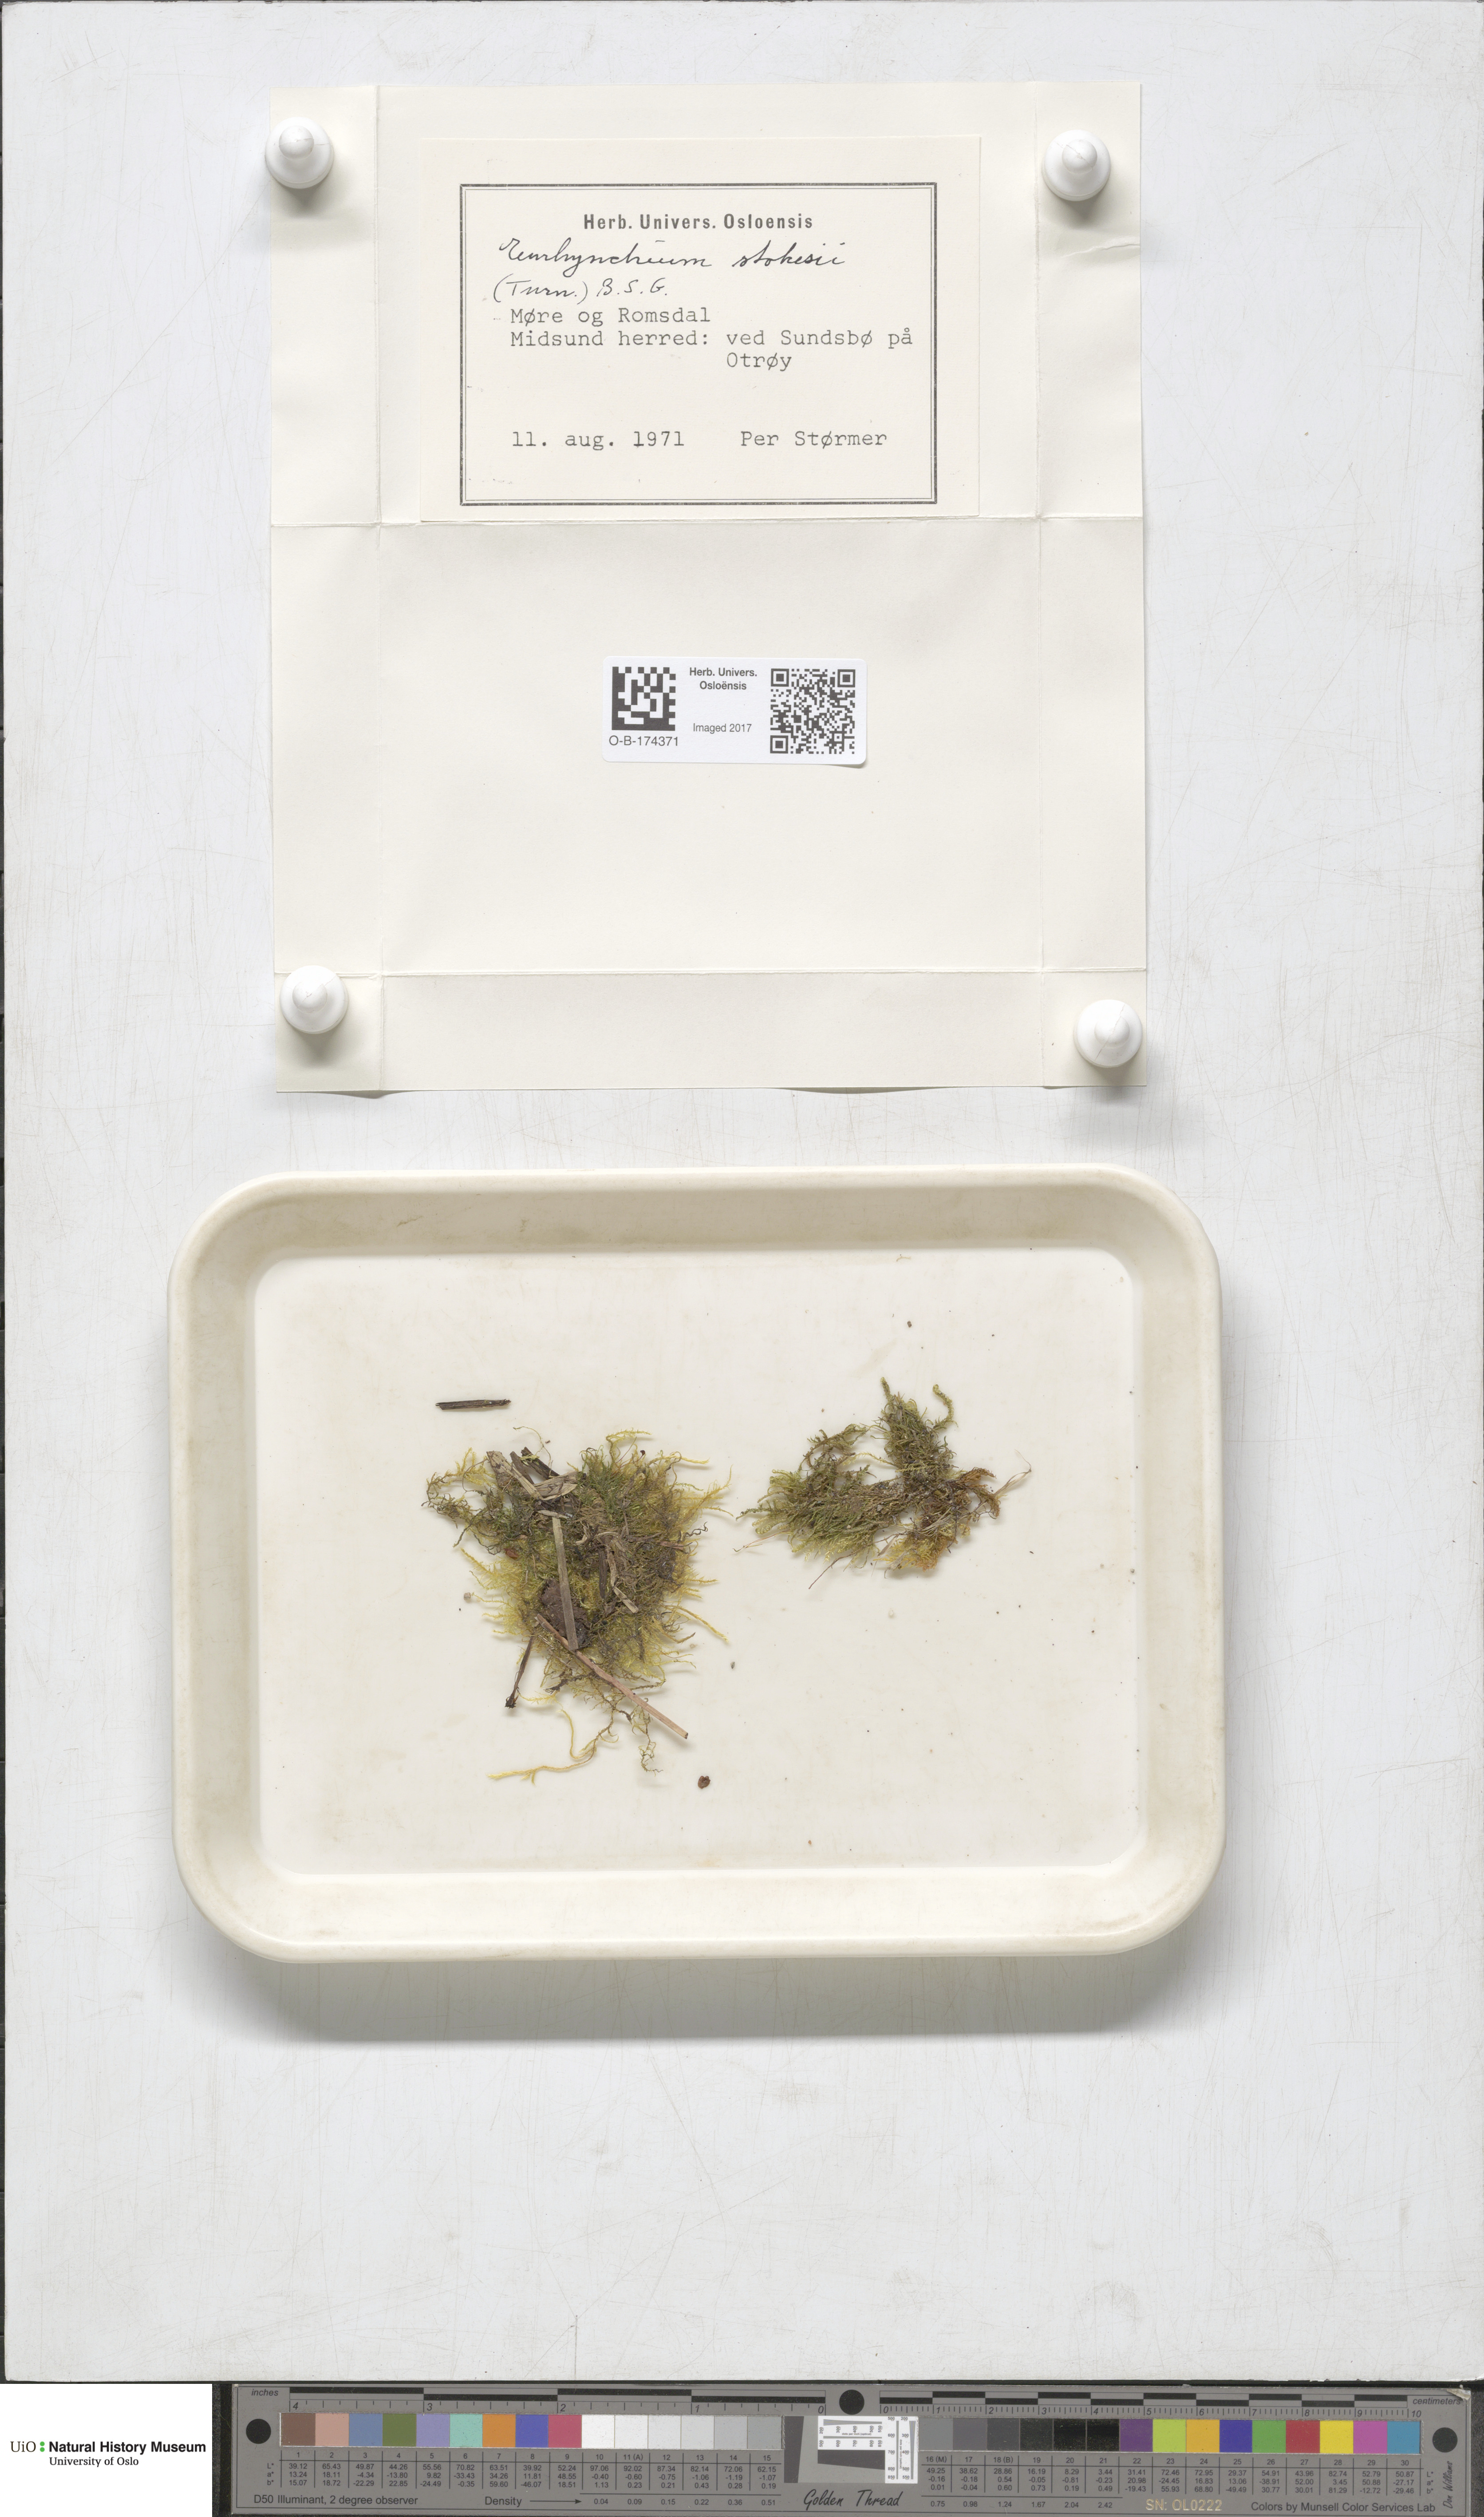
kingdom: Plantae
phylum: Bryophyta
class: Bryopsida
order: Hypnales
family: Brachytheciaceae
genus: Kindbergia
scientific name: Kindbergia praelonga
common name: Slender beaked moss
